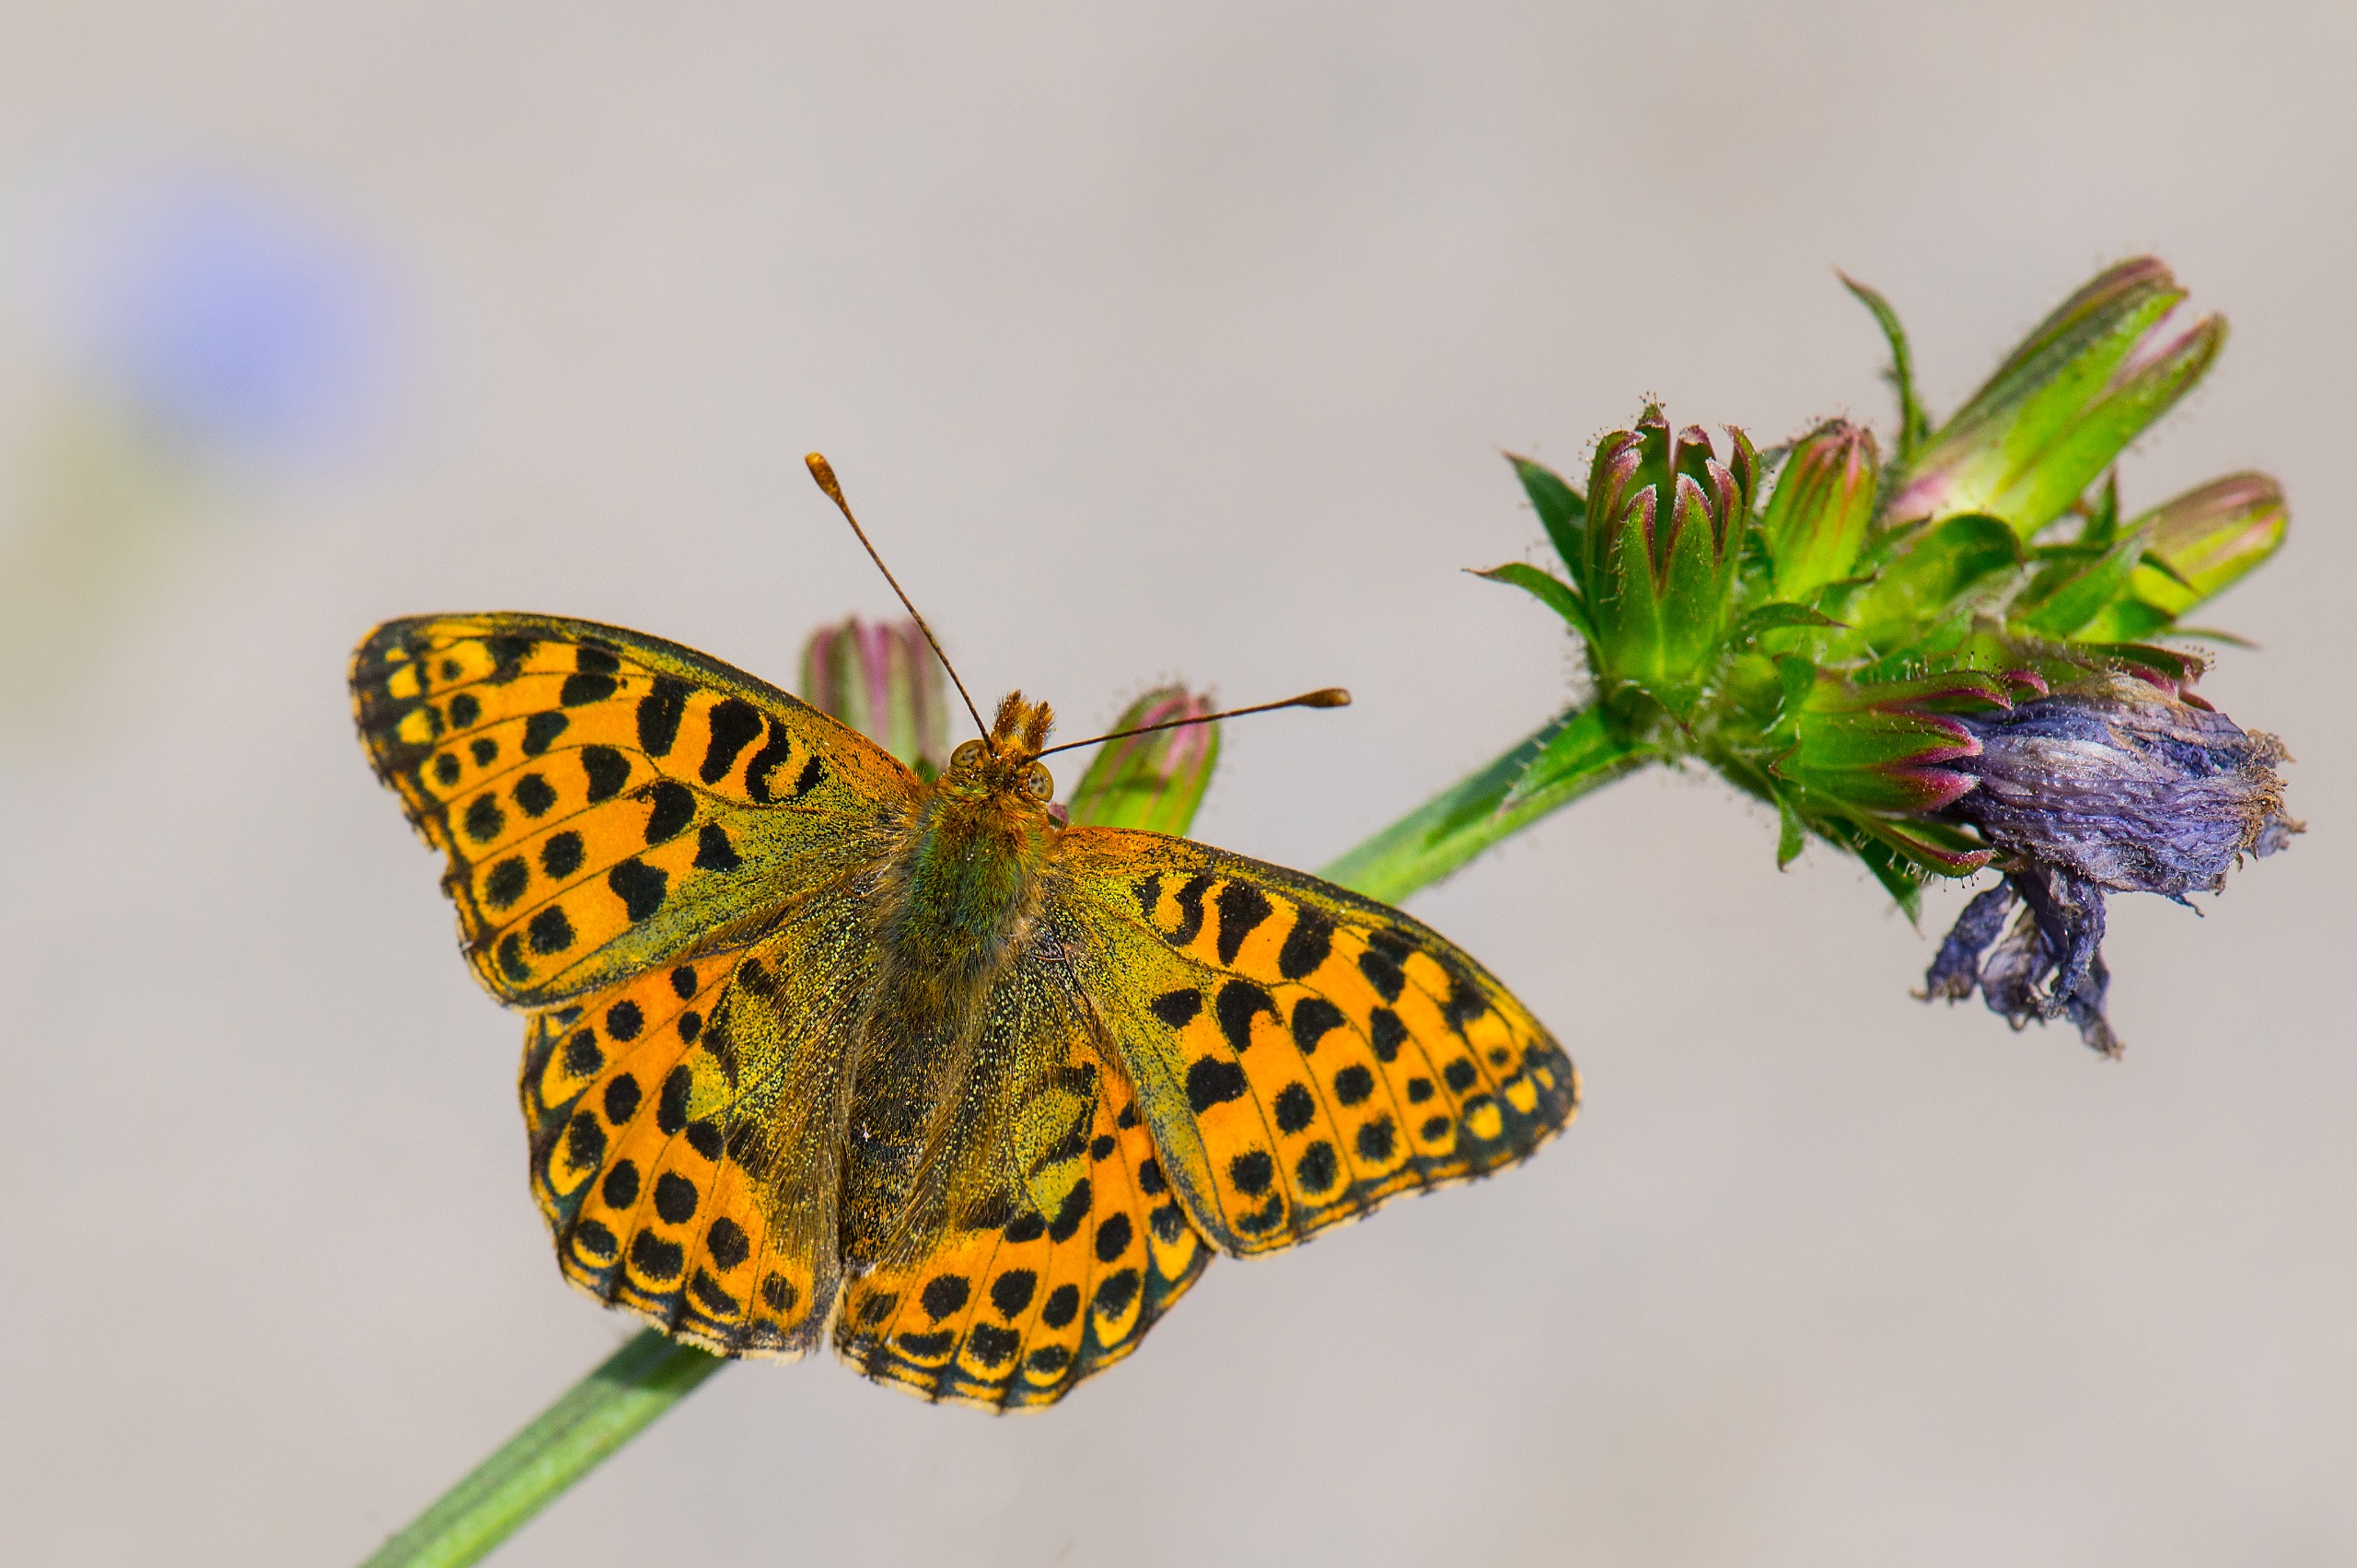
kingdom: Animalia
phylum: Arthropoda
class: Insecta
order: Lepidoptera
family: Nymphalidae
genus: Issoria
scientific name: Issoria lathonia
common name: Storplettet perlemorsommerfugl
